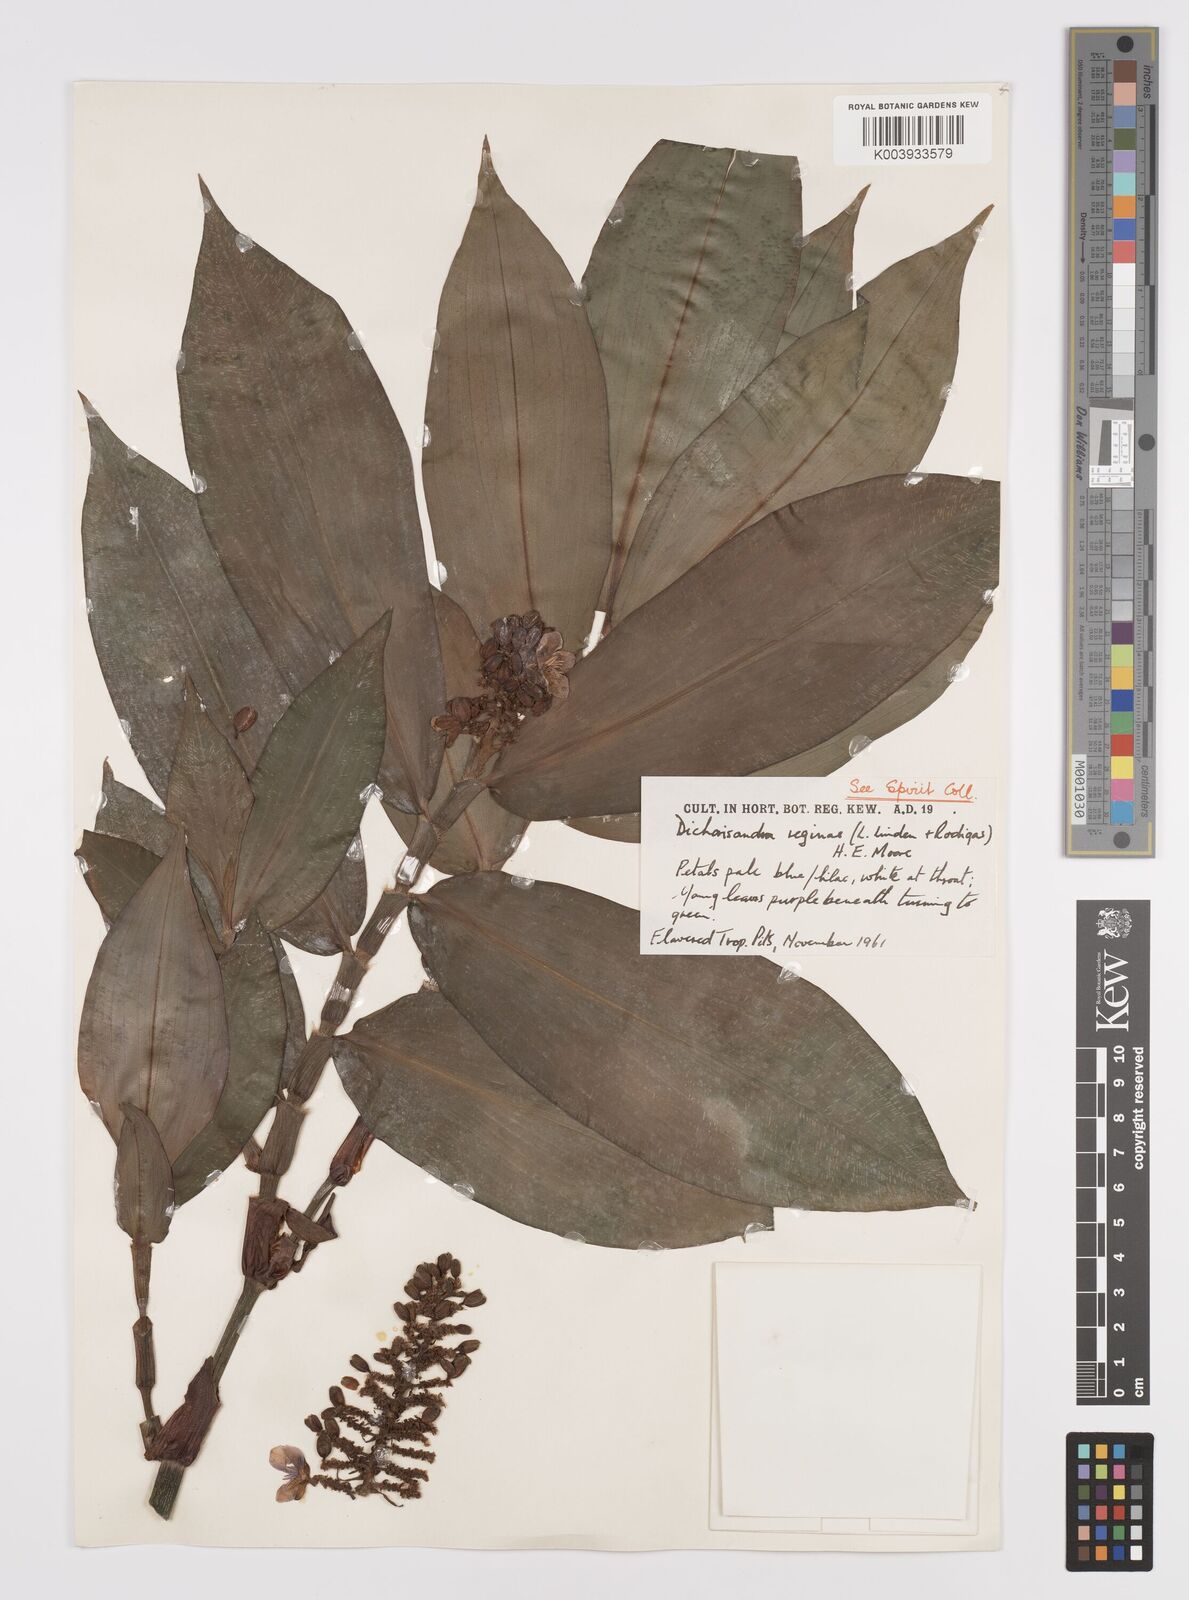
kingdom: Plantae
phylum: Tracheophyta
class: Liliopsida
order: Commelinales
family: Commelinaceae
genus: Dichorisandra
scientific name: Dichorisandra musaica
